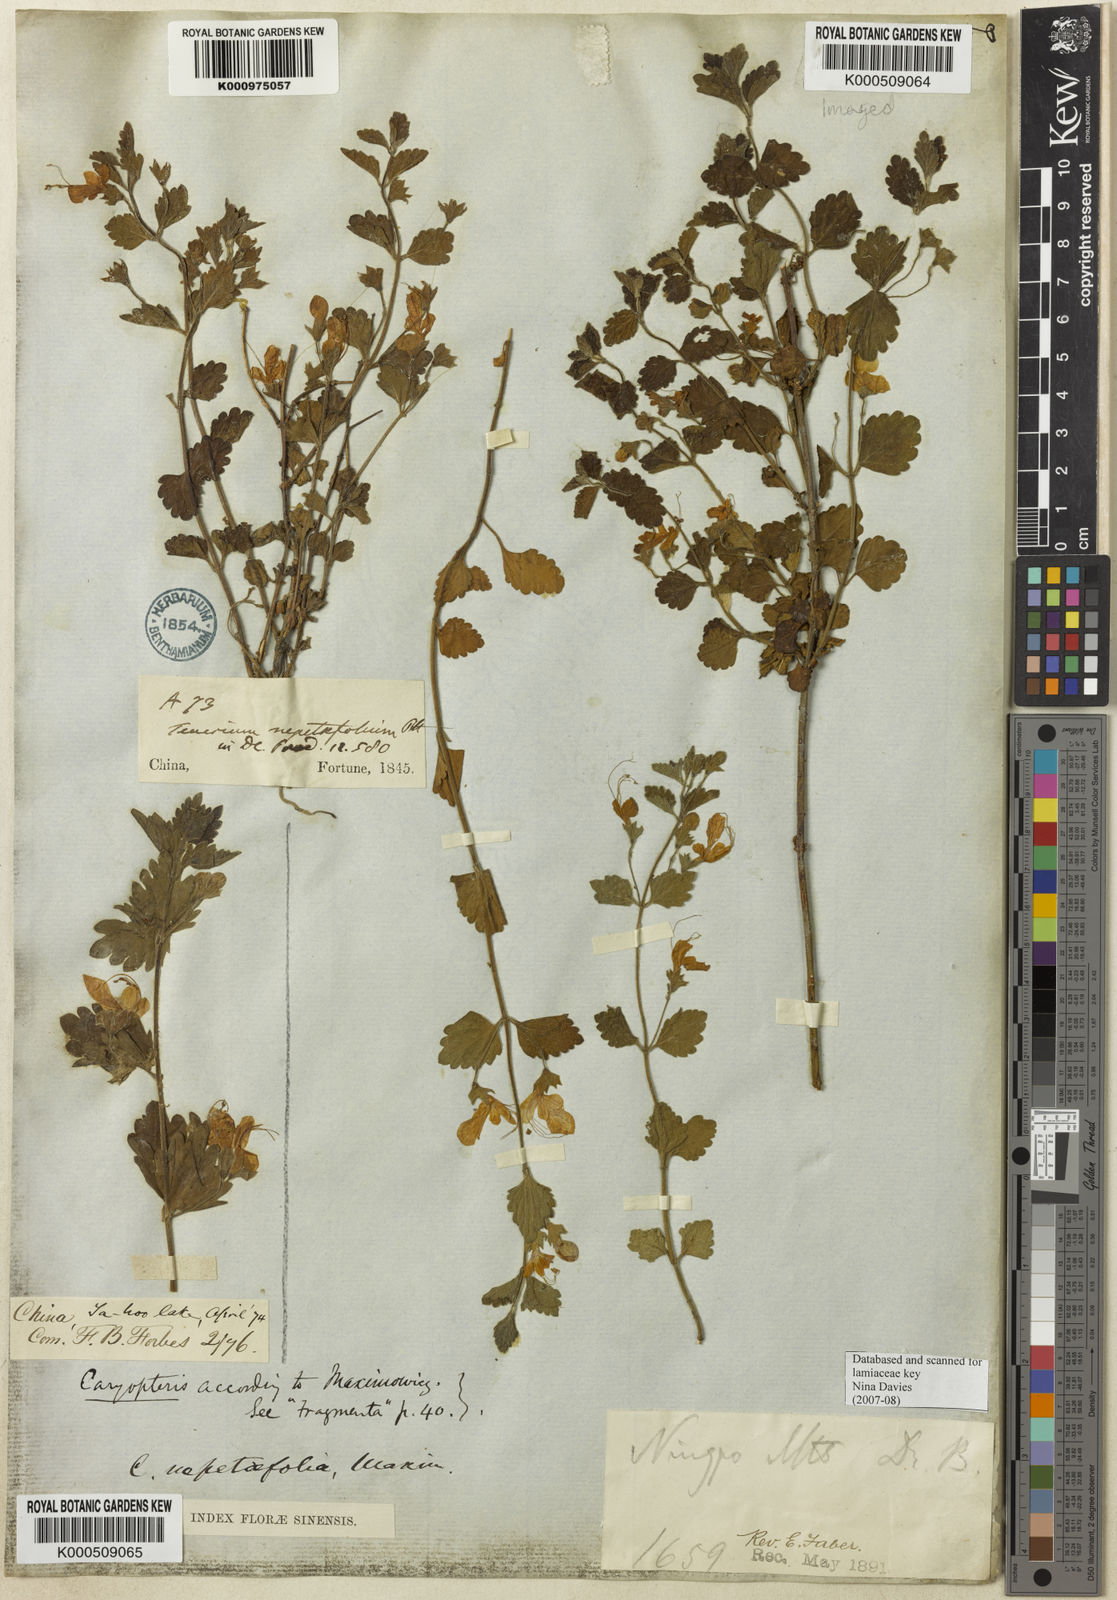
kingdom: Plantae
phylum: Tracheophyta
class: Magnoliopsida
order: Lamiales
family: Lamiaceae
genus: Schnabelia
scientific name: Schnabelia nepetifolia
